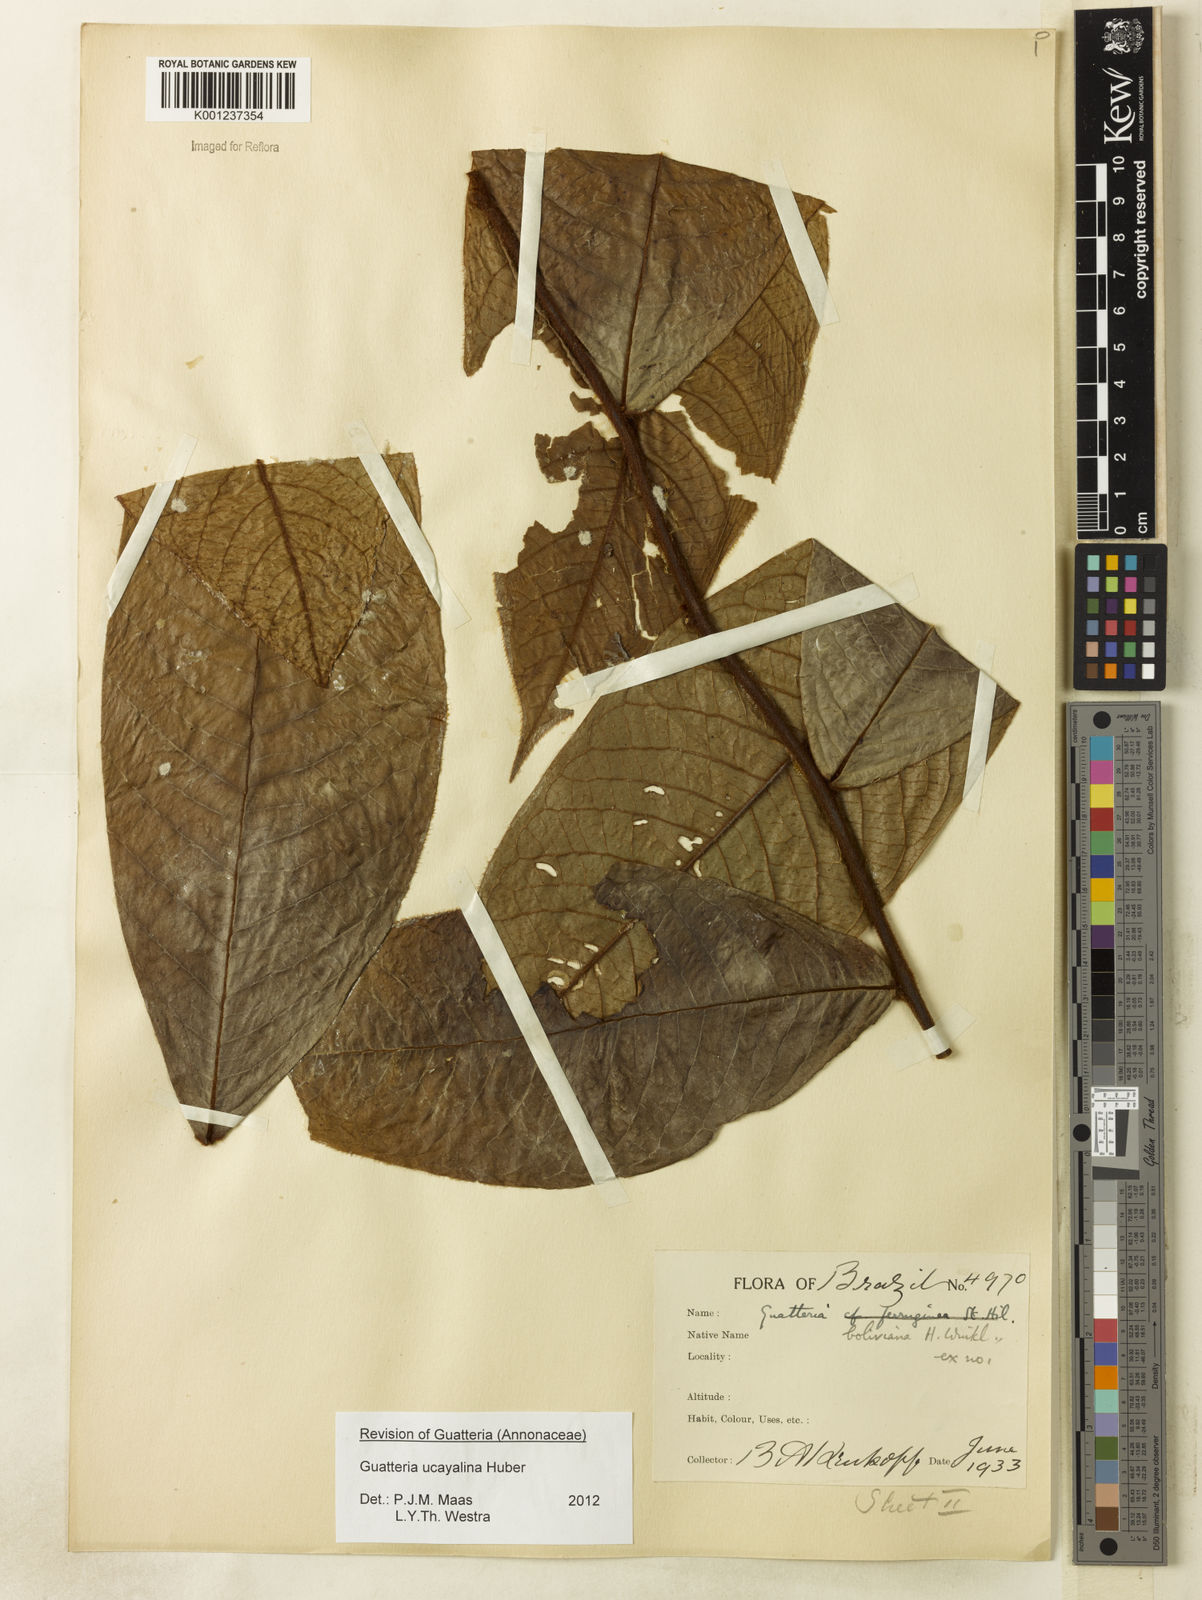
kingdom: Plantae
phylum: Tracheophyta
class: Magnoliopsida
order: Magnoliales
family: Annonaceae
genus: Guatteria
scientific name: Guatteria blepharophylla
